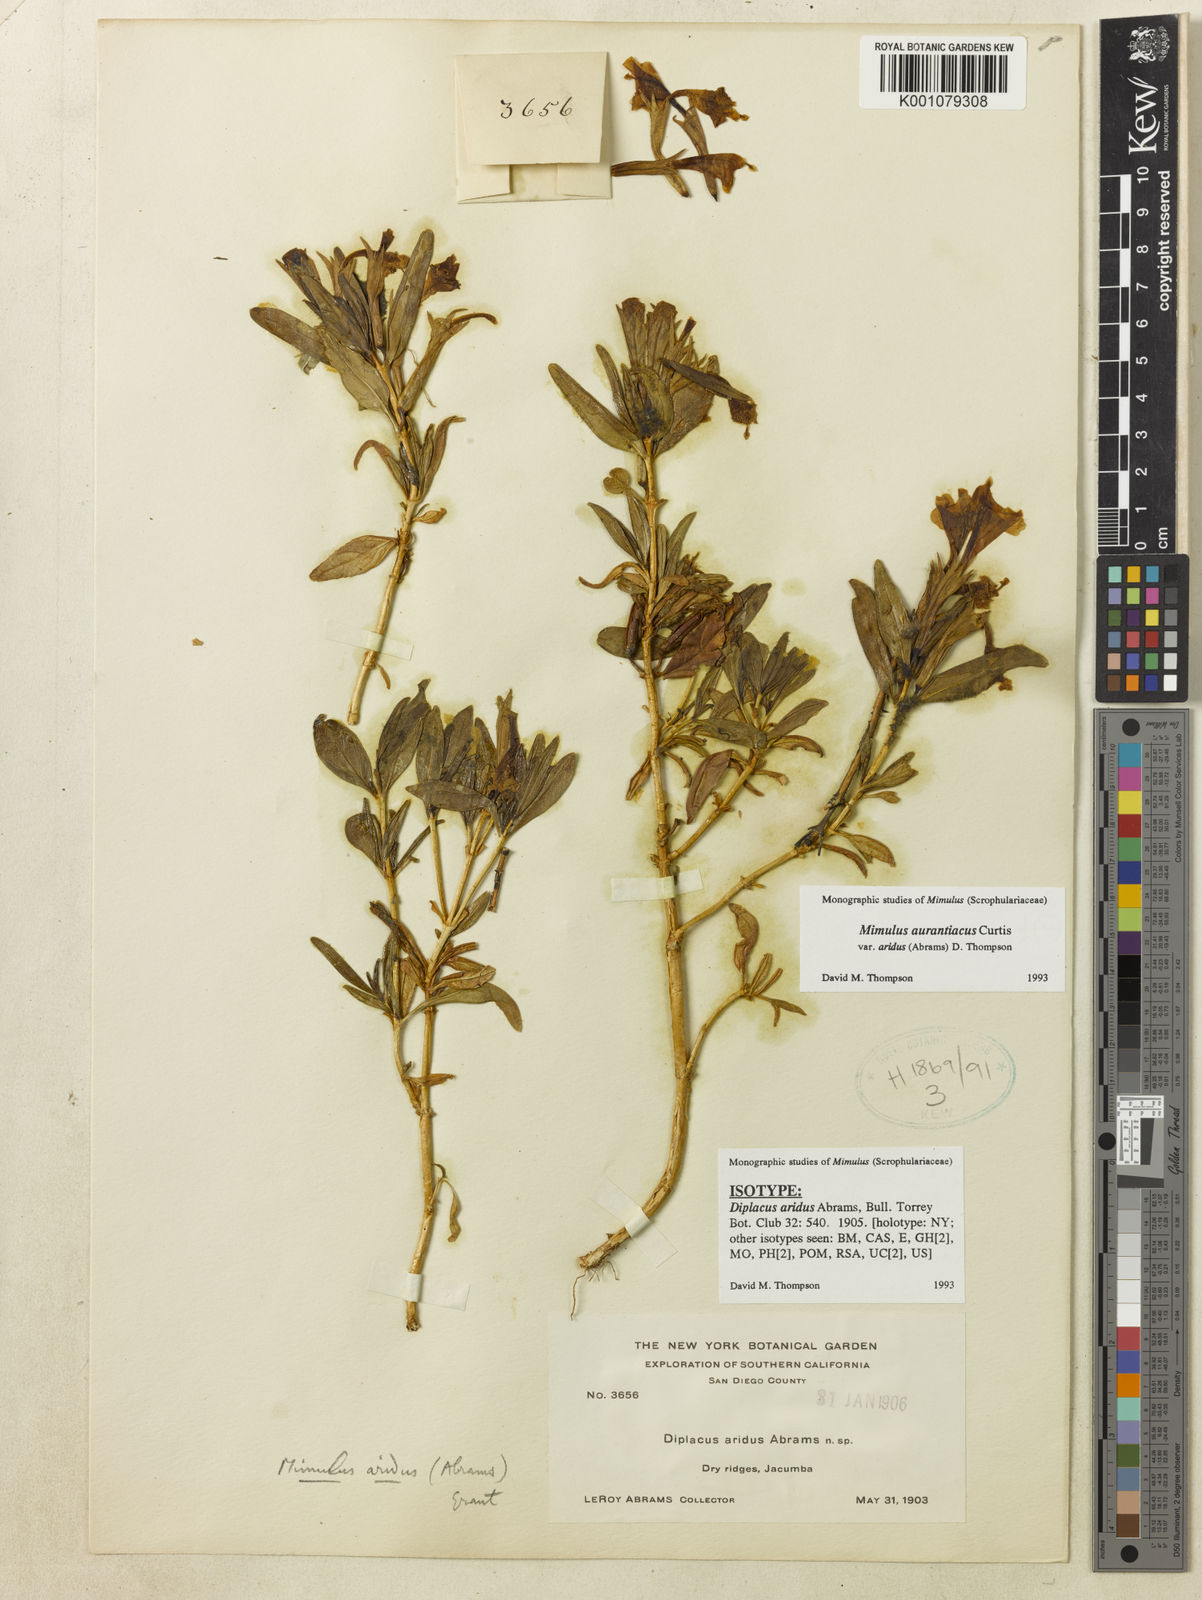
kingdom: Plantae
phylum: Tracheophyta
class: Magnoliopsida
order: Lamiales
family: Phrymaceae
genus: Diplacus
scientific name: Diplacus aridus
